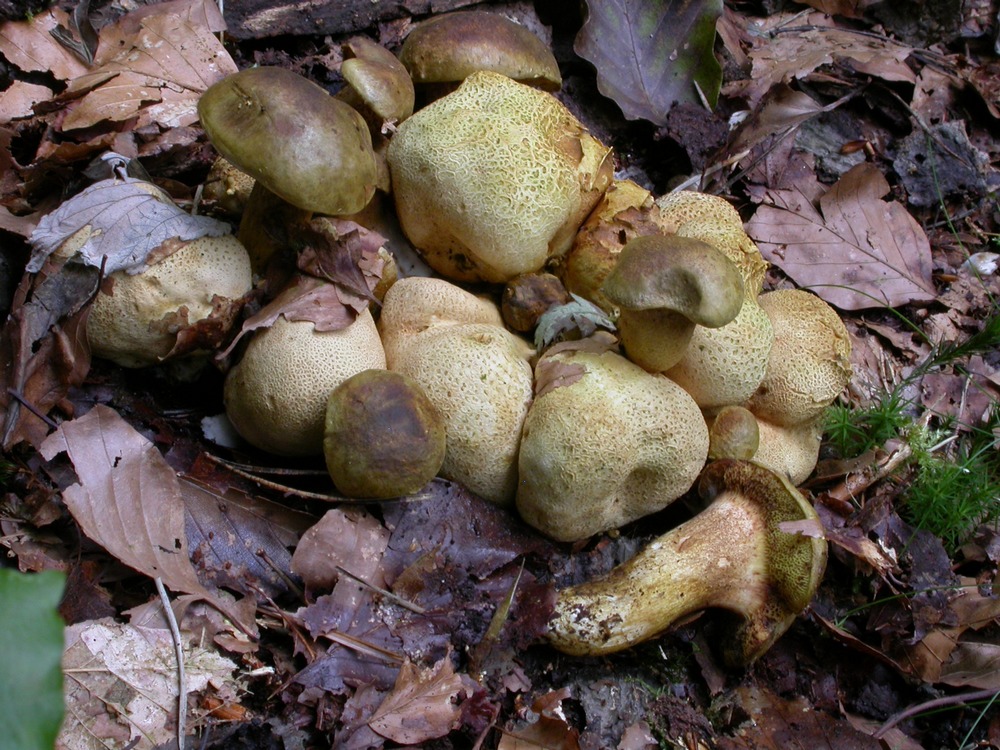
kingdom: Fungi
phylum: Basidiomycota
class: Agaricomycetes
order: Boletales
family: Boletaceae
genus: Pseudoboletus
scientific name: Pseudoboletus parasiticus
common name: snyltende rørhat
